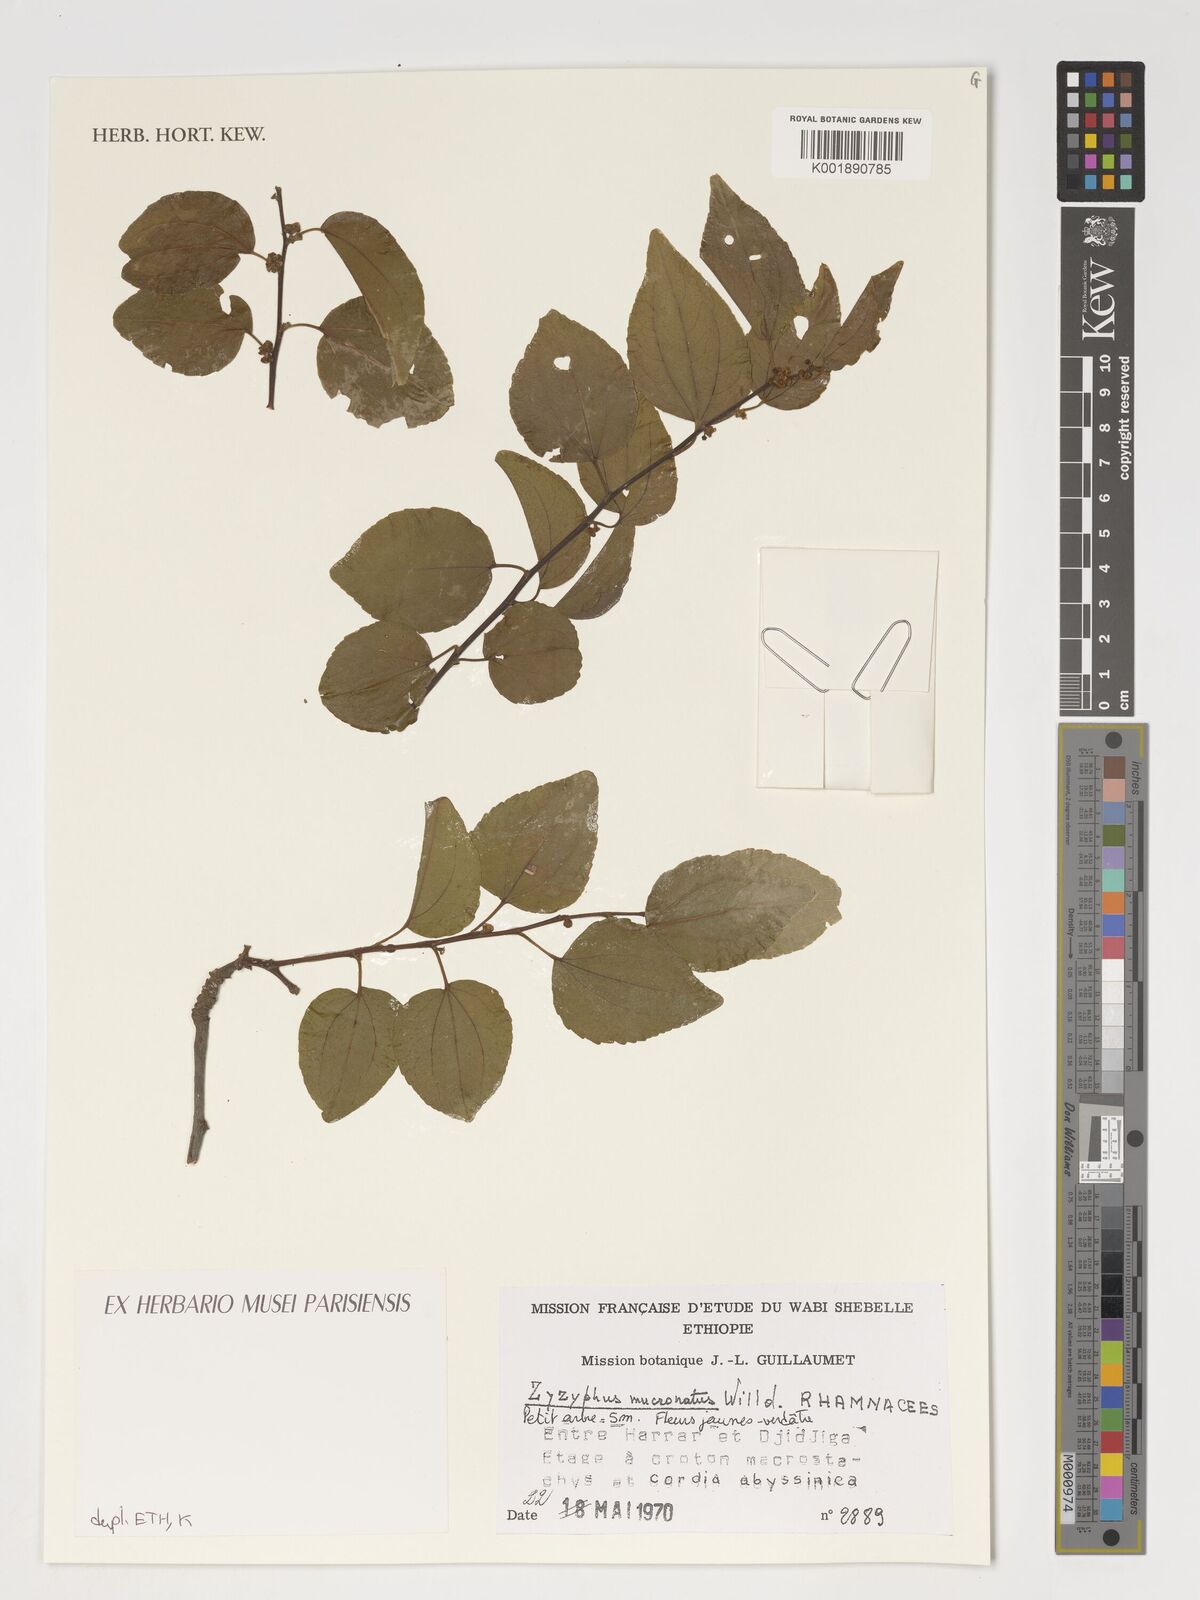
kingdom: Plantae
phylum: Tracheophyta
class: Magnoliopsida
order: Rosales
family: Rhamnaceae
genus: Ziziphus
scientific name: Ziziphus mucronata
